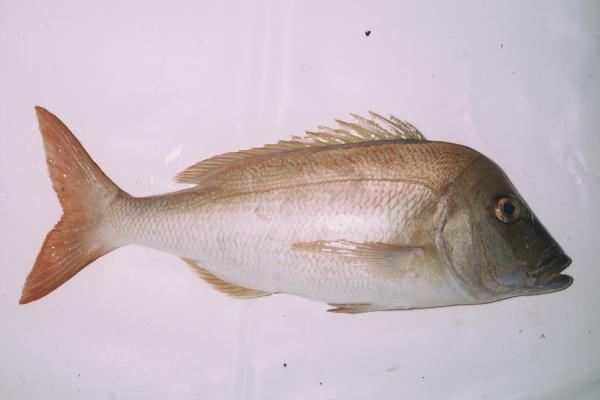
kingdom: Animalia
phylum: Chordata
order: Perciformes
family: Sparidae
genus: Polysteganus
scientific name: Polysteganus praeorbitalis
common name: Scotsman
